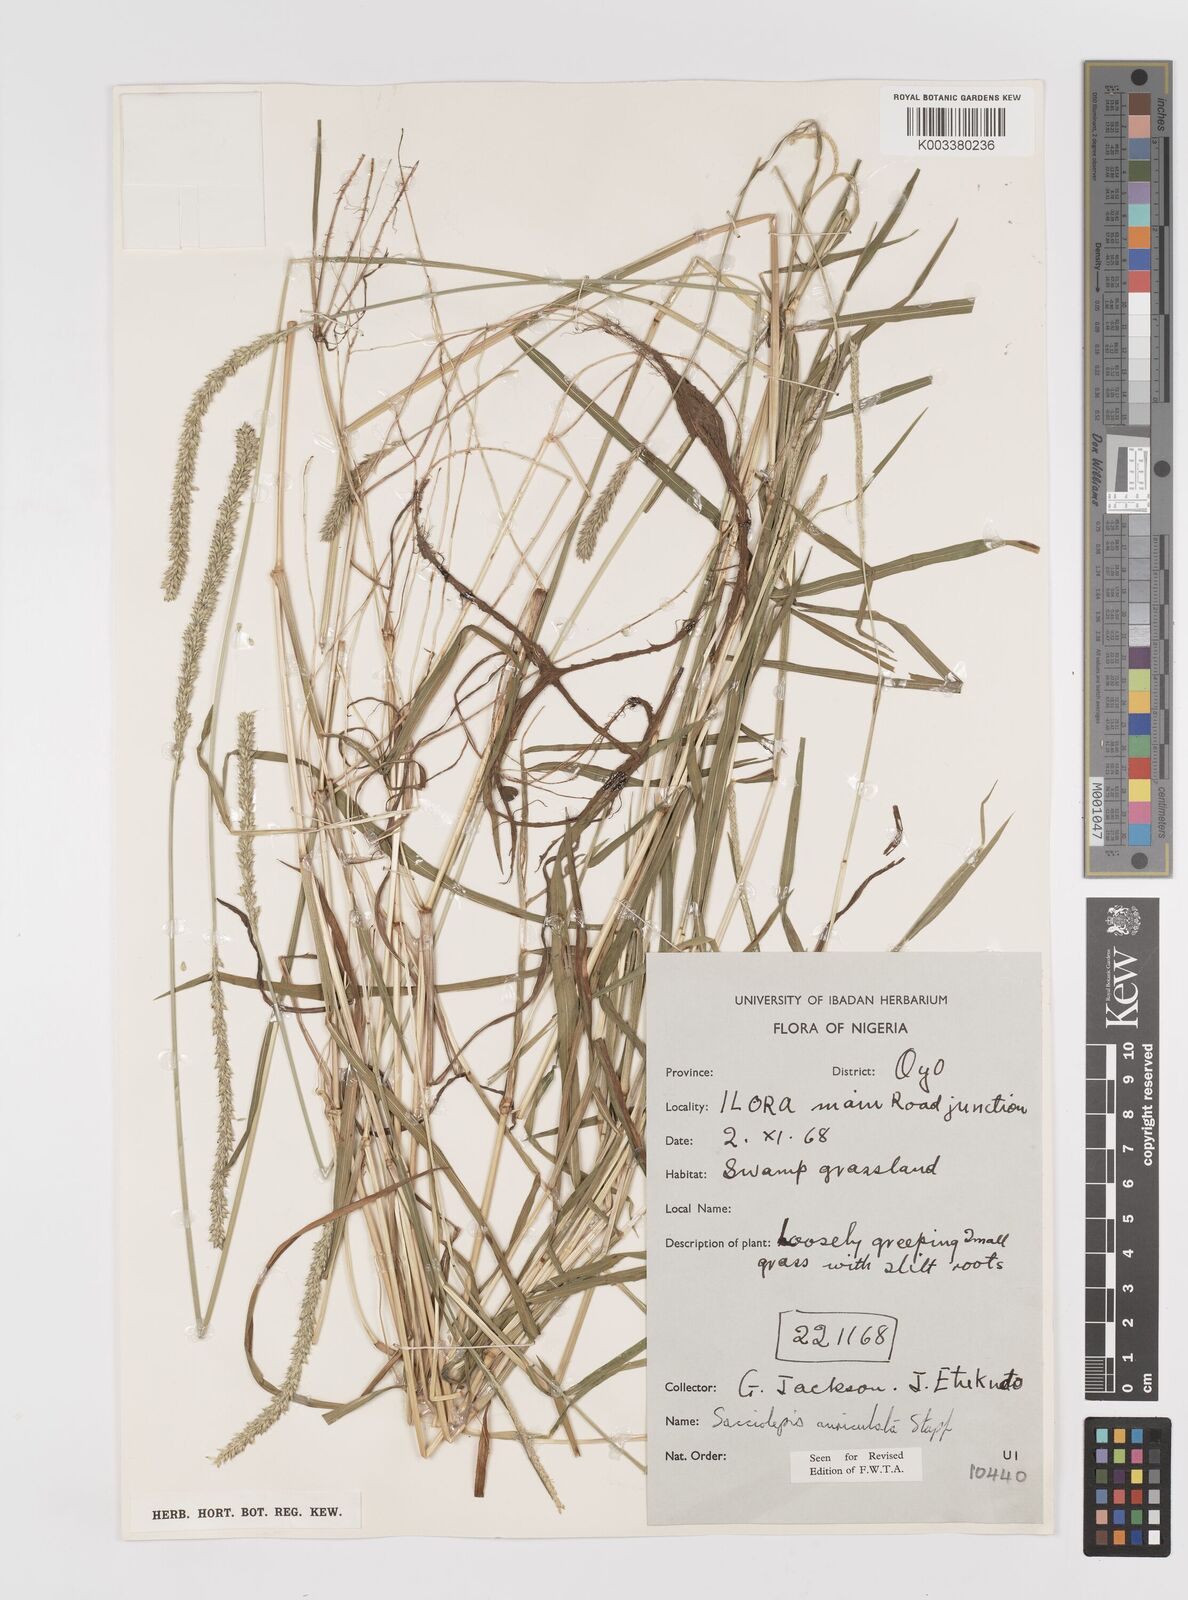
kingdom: Plantae
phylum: Tracheophyta
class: Liliopsida
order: Poales
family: Poaceae
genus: Sacciolepis
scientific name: Sacciolepis indica
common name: Glenwoodgrass
